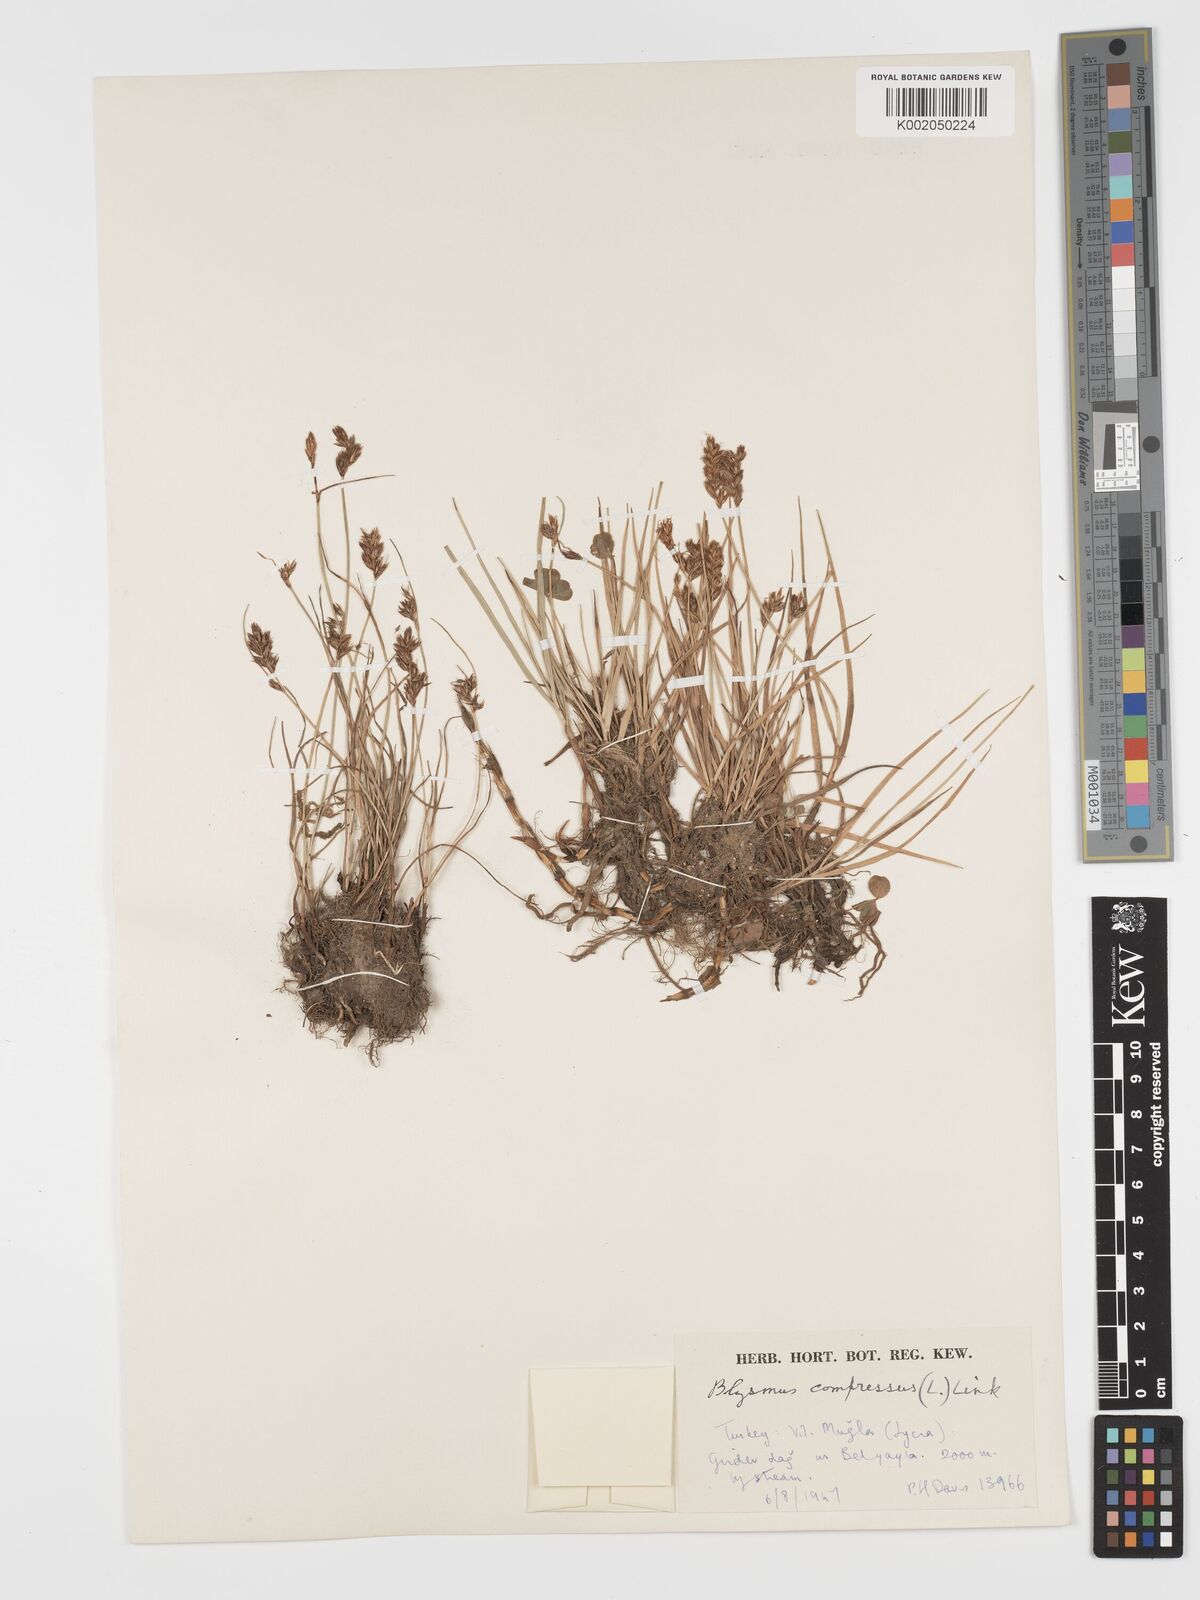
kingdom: Plantae
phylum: Tracheophyta
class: Liliopsida
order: Poales
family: Cyperaceae
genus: Blysmus
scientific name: Blysmus compressus
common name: Flat-sedge
